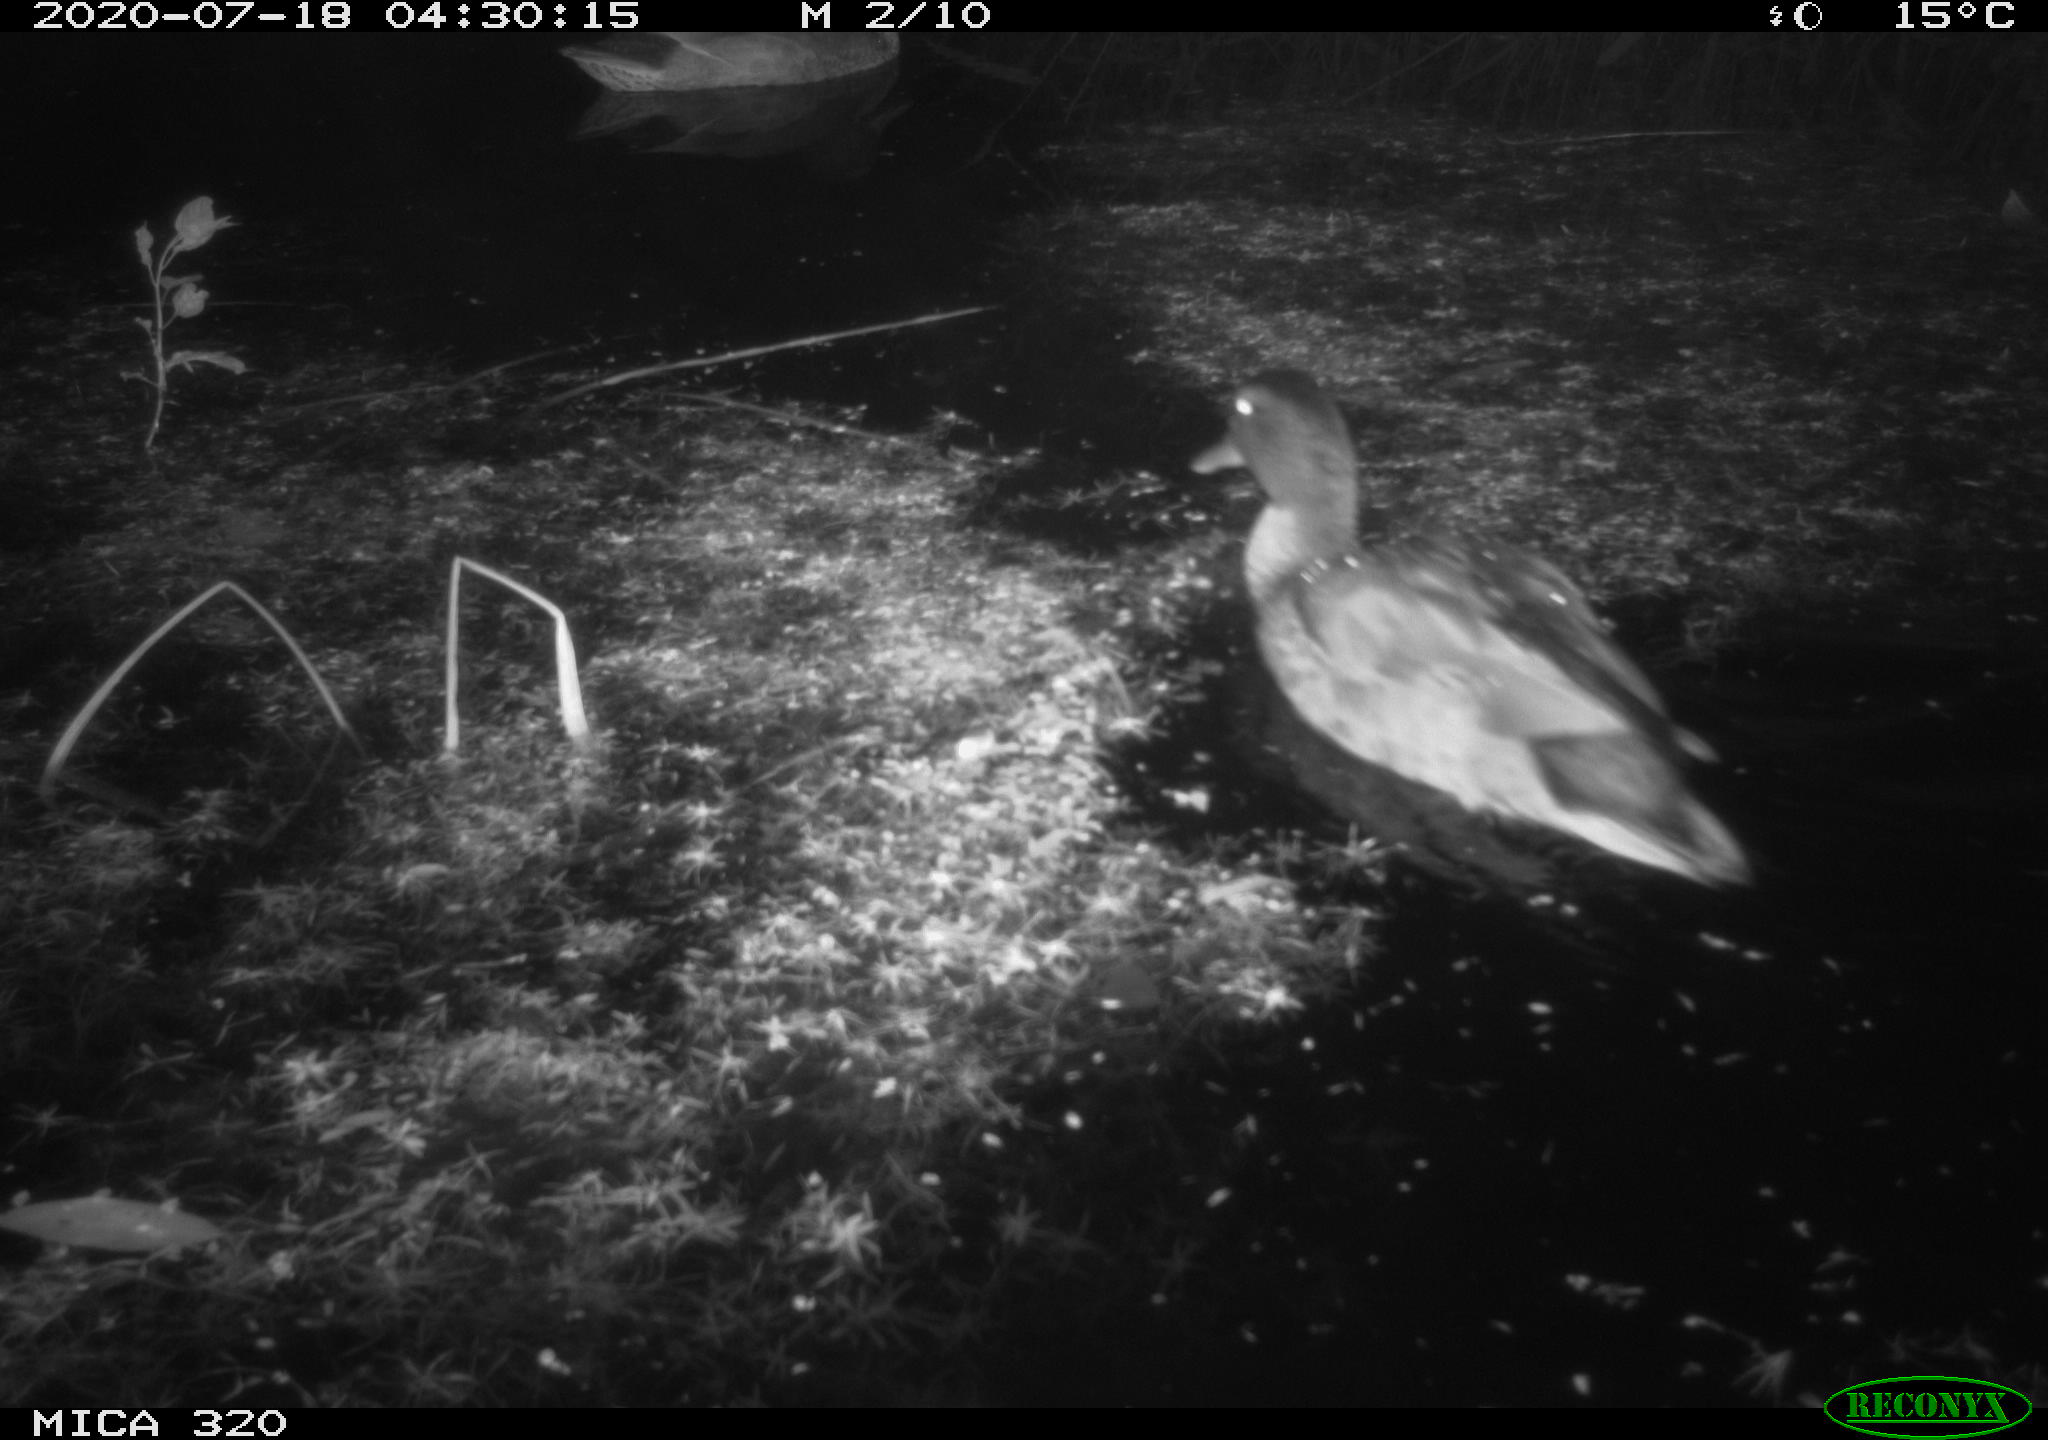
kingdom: Animalia
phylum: Chordata
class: Aves
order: Anseriformes
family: Anatidae
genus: Anas
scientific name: Anas platyrhynchos
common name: Mallard
